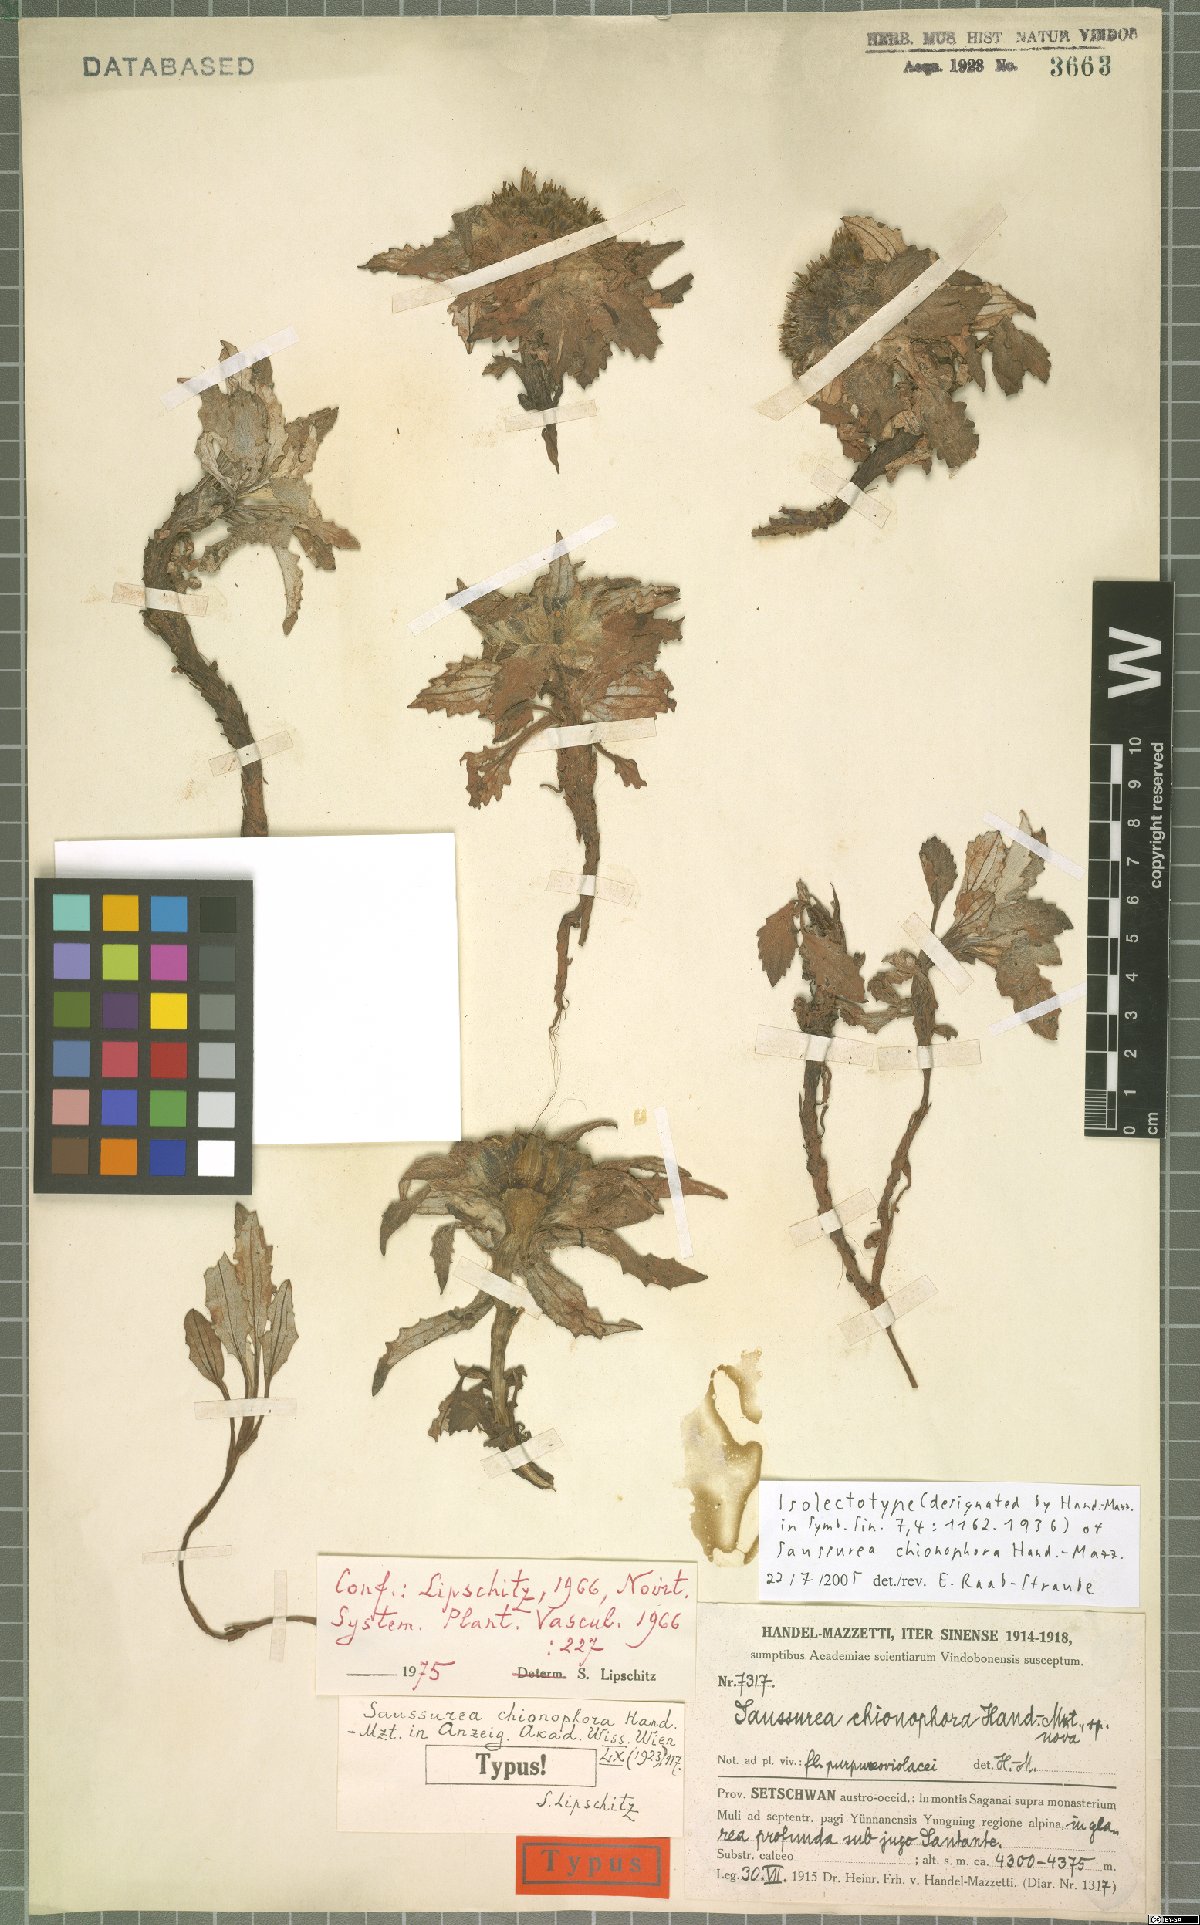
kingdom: Plantae
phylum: Tracheophyta
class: Magnoliopsida
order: Asterales
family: Asteraceae
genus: Saussurea
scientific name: Saussurea quercifolia
